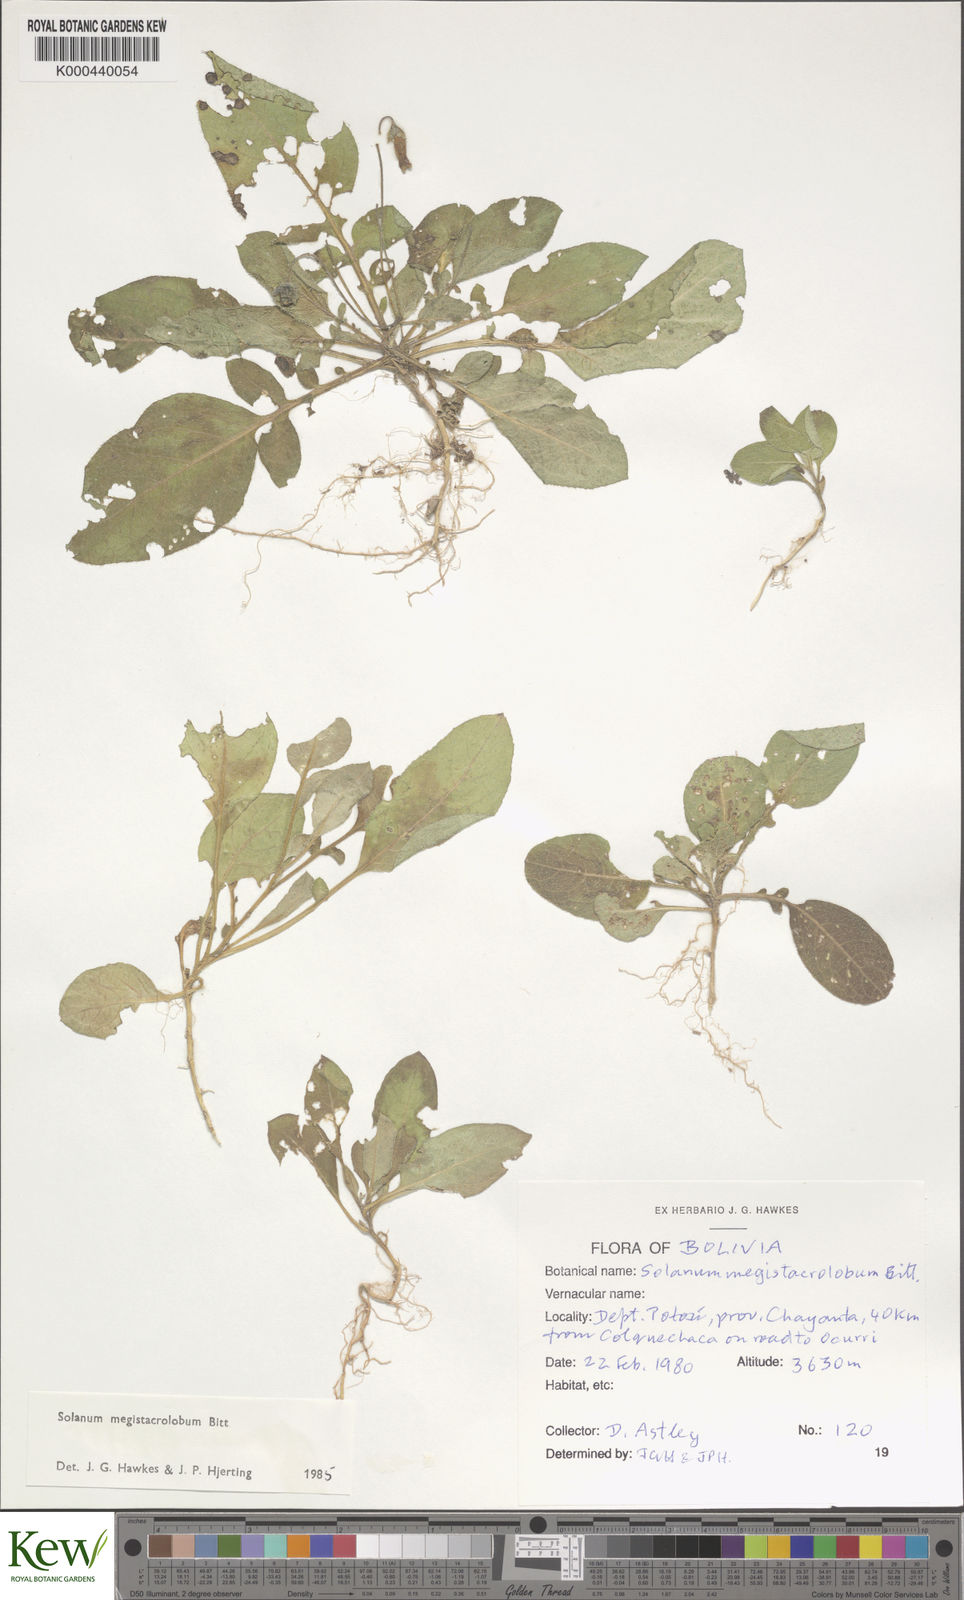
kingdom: Plantae
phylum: Tracheophyta
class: Magnoliopsida
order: Solanales
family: Solanaceae
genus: Solanum
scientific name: Solanum boliviense
